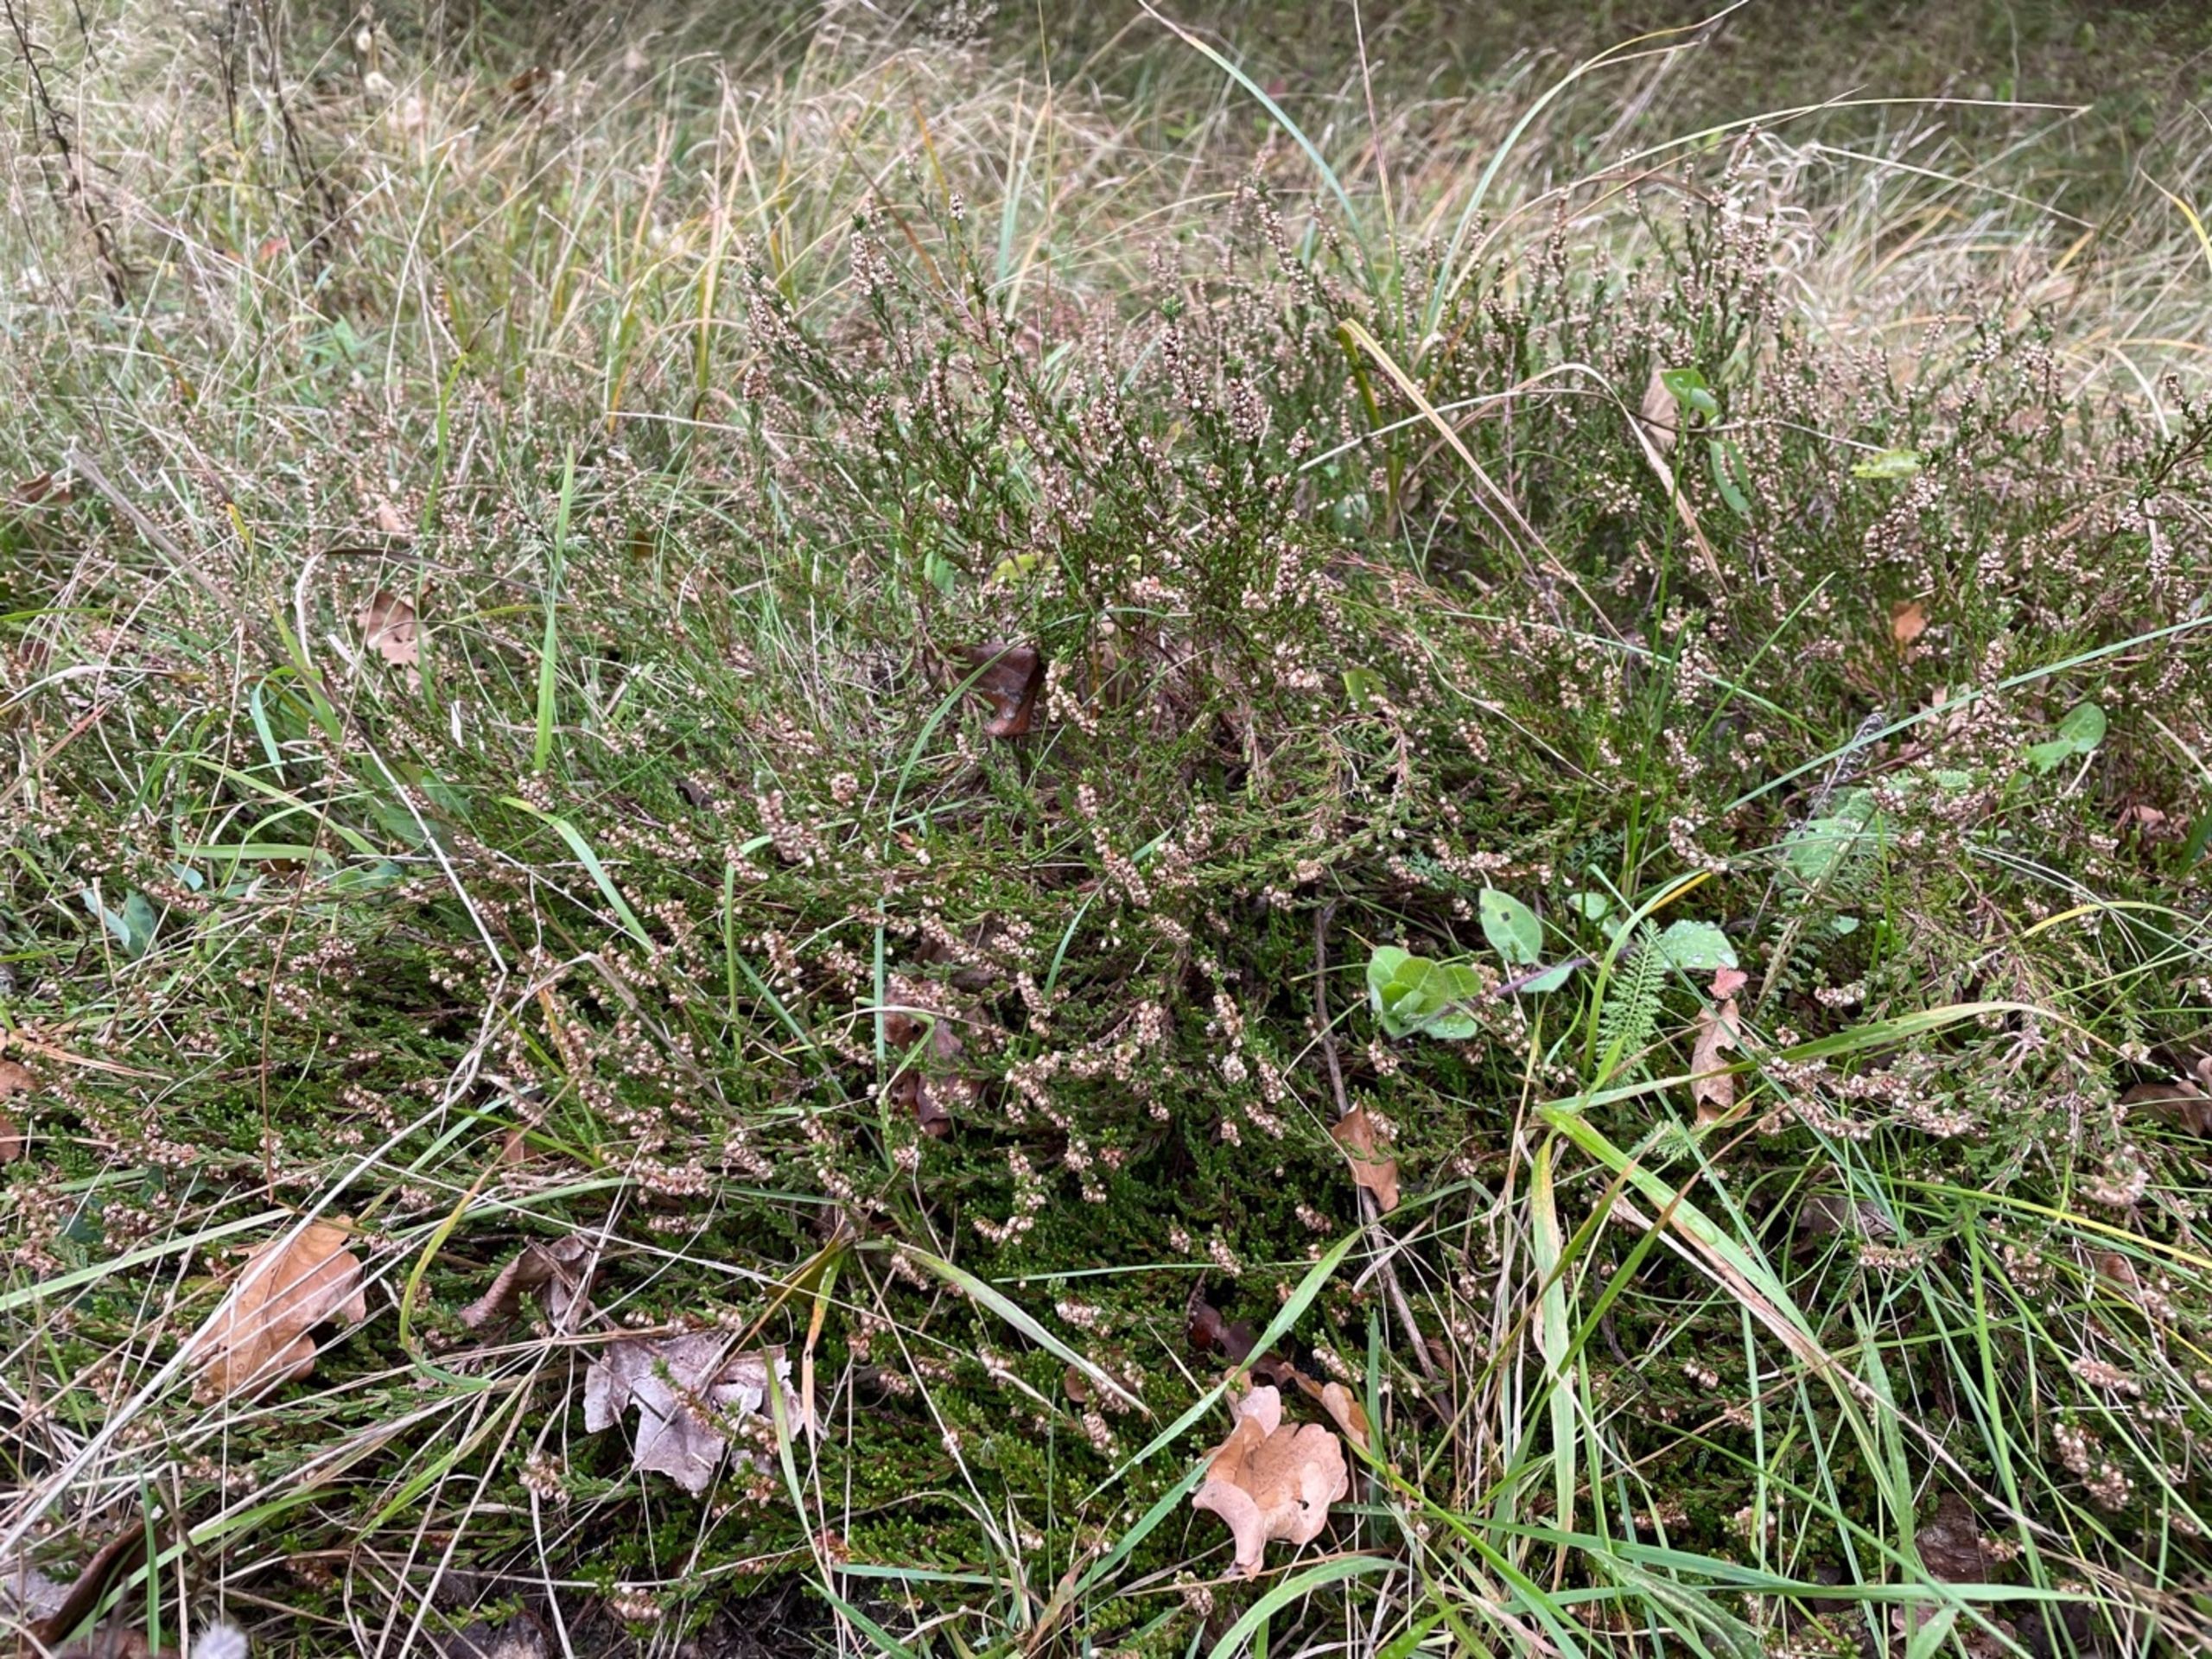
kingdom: Plantae
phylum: Tracheophyta
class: Magnoliopsida
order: Ericales
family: Ericaceae
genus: Calluna
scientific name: Calluna vulgaris
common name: Hedelyng
